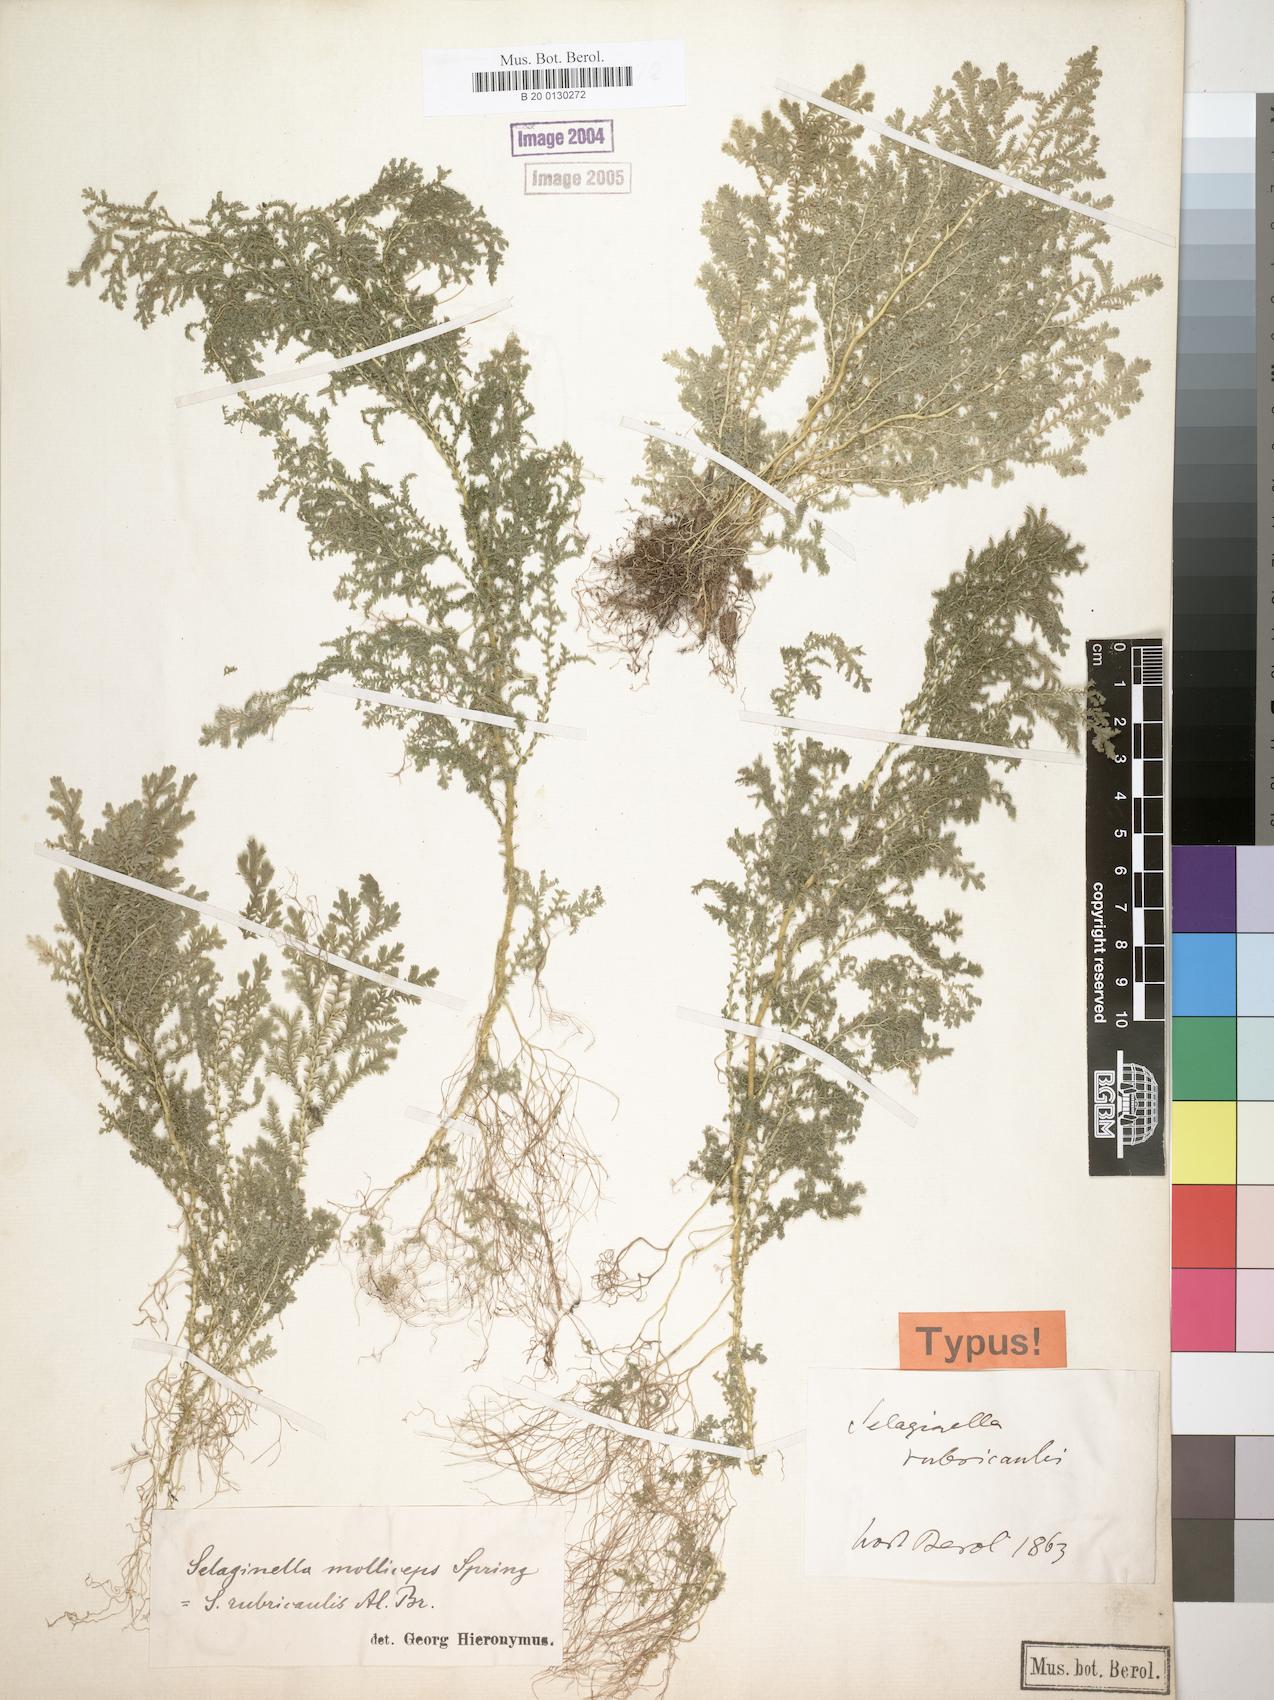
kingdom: Plantae
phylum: Tracheophyta
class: Lycopodiopsida
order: Selaginellales
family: Selaginellaceae
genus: Selaginella
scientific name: Selaginella molliceps
